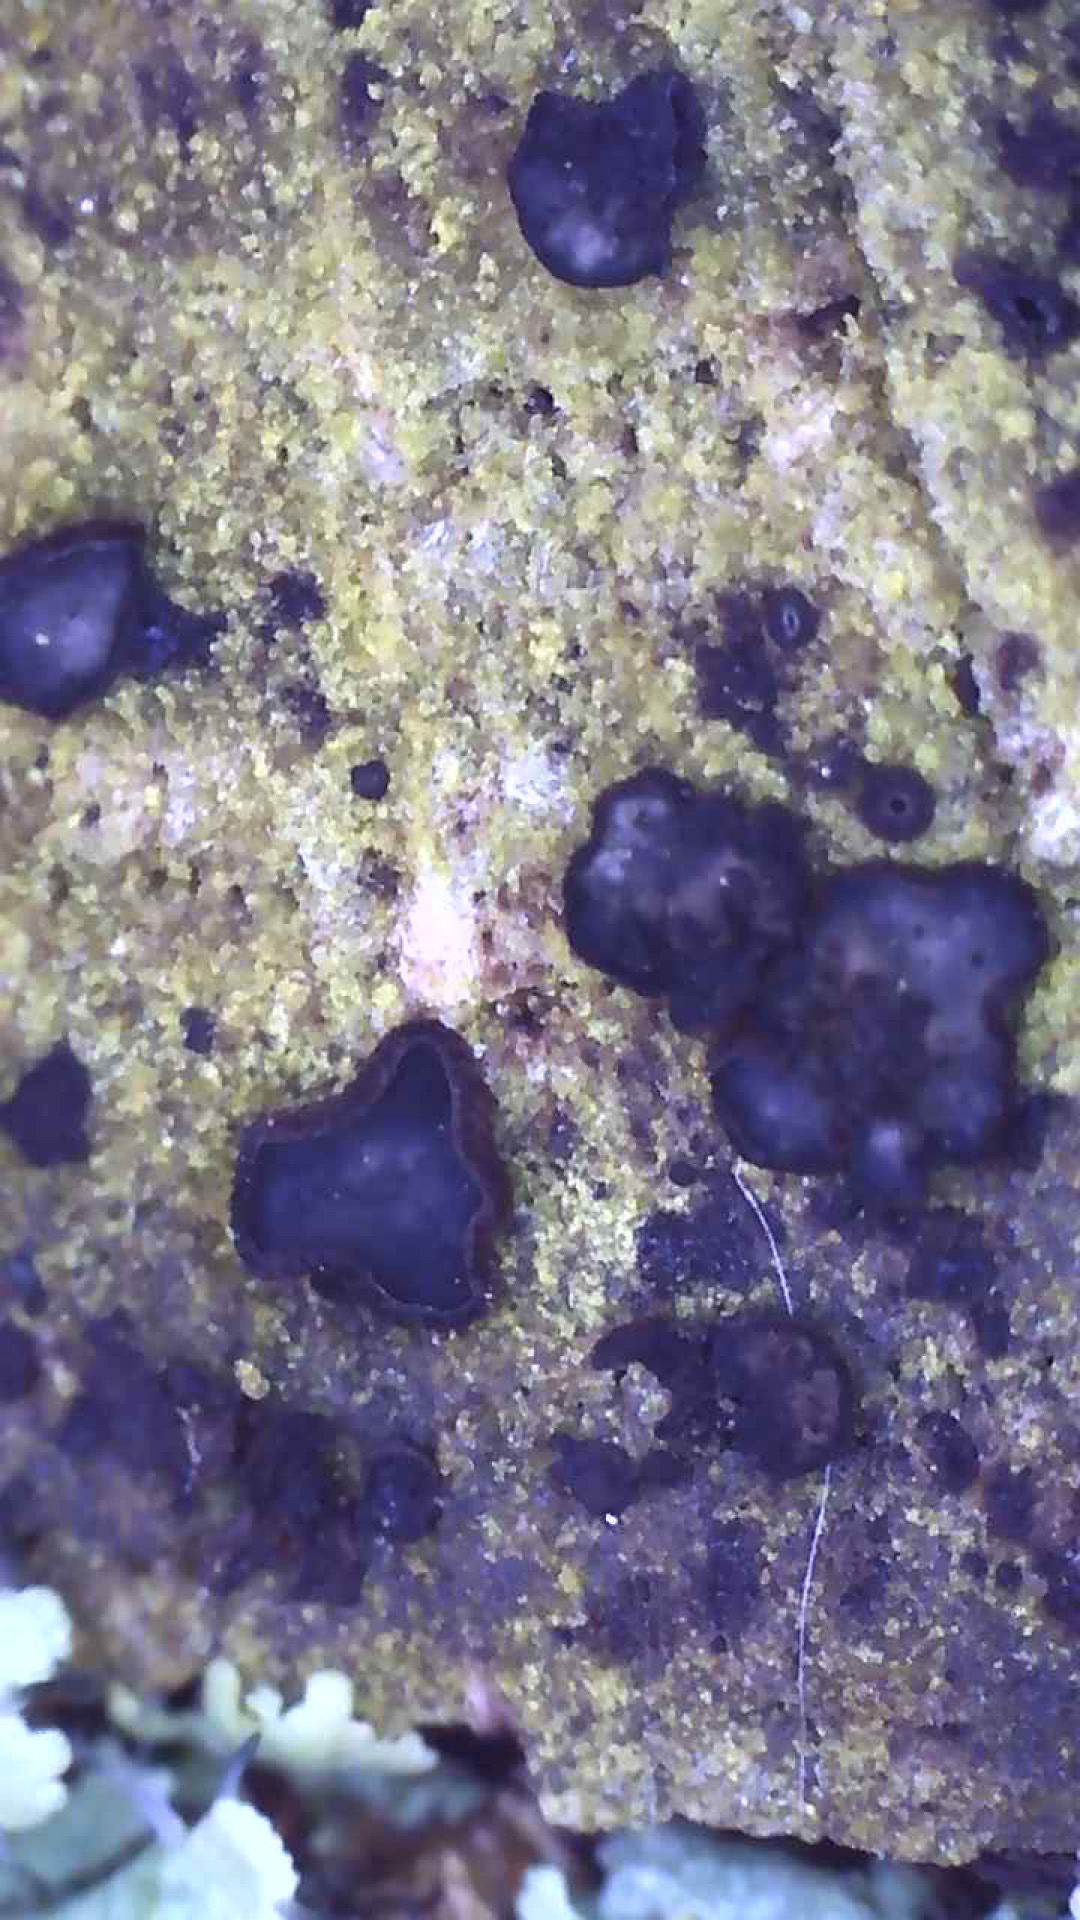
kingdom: Fungi
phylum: Ascomycota
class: Leotiomycetes
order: Helotiales
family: Mollisiaceae
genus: Mollisia
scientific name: Mollisia ligni
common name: ved-gråskive
